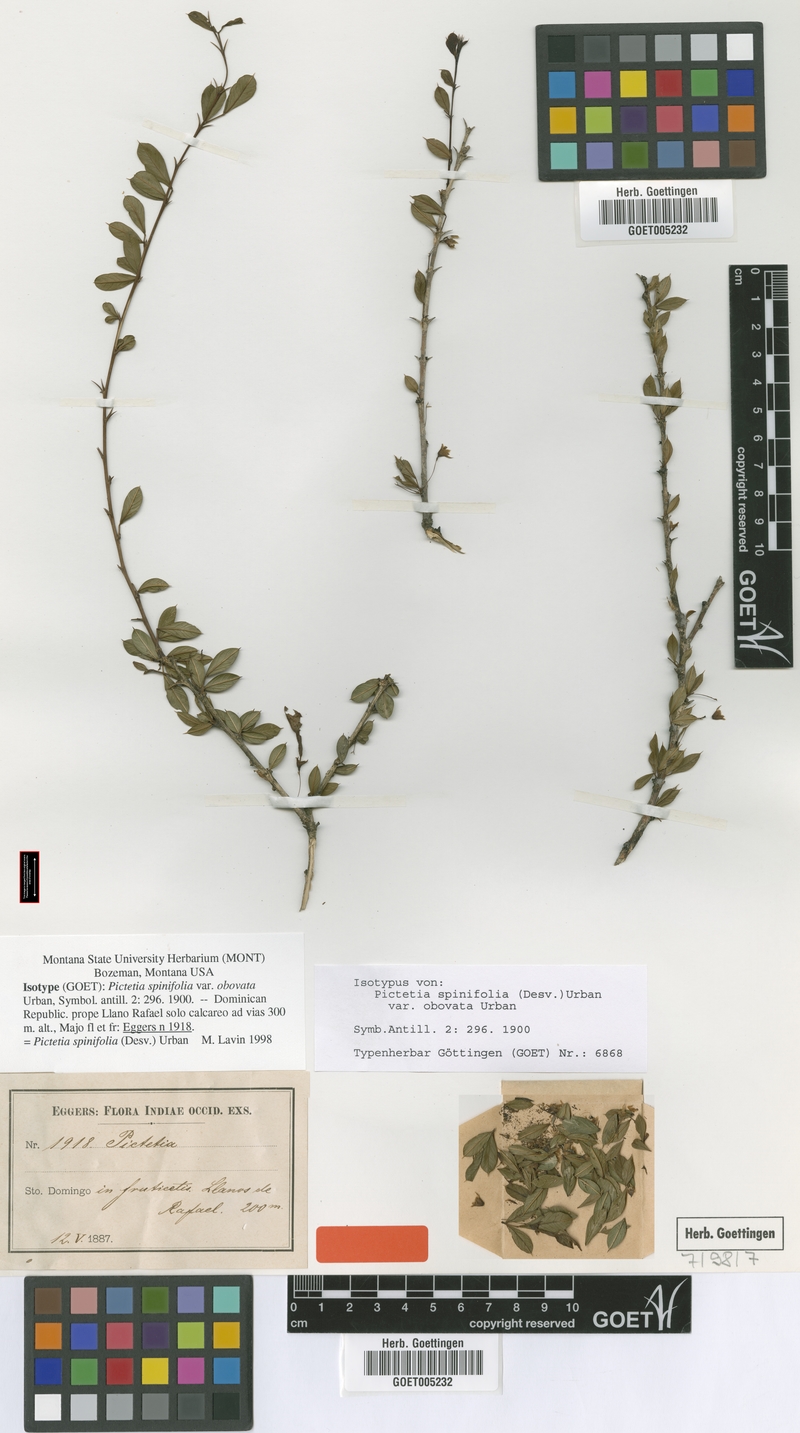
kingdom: Plantae
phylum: Tracheophyta
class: Magnoliopsida
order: Fabales
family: Fabaceae
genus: Pictetia
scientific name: Pictetia sulcata
